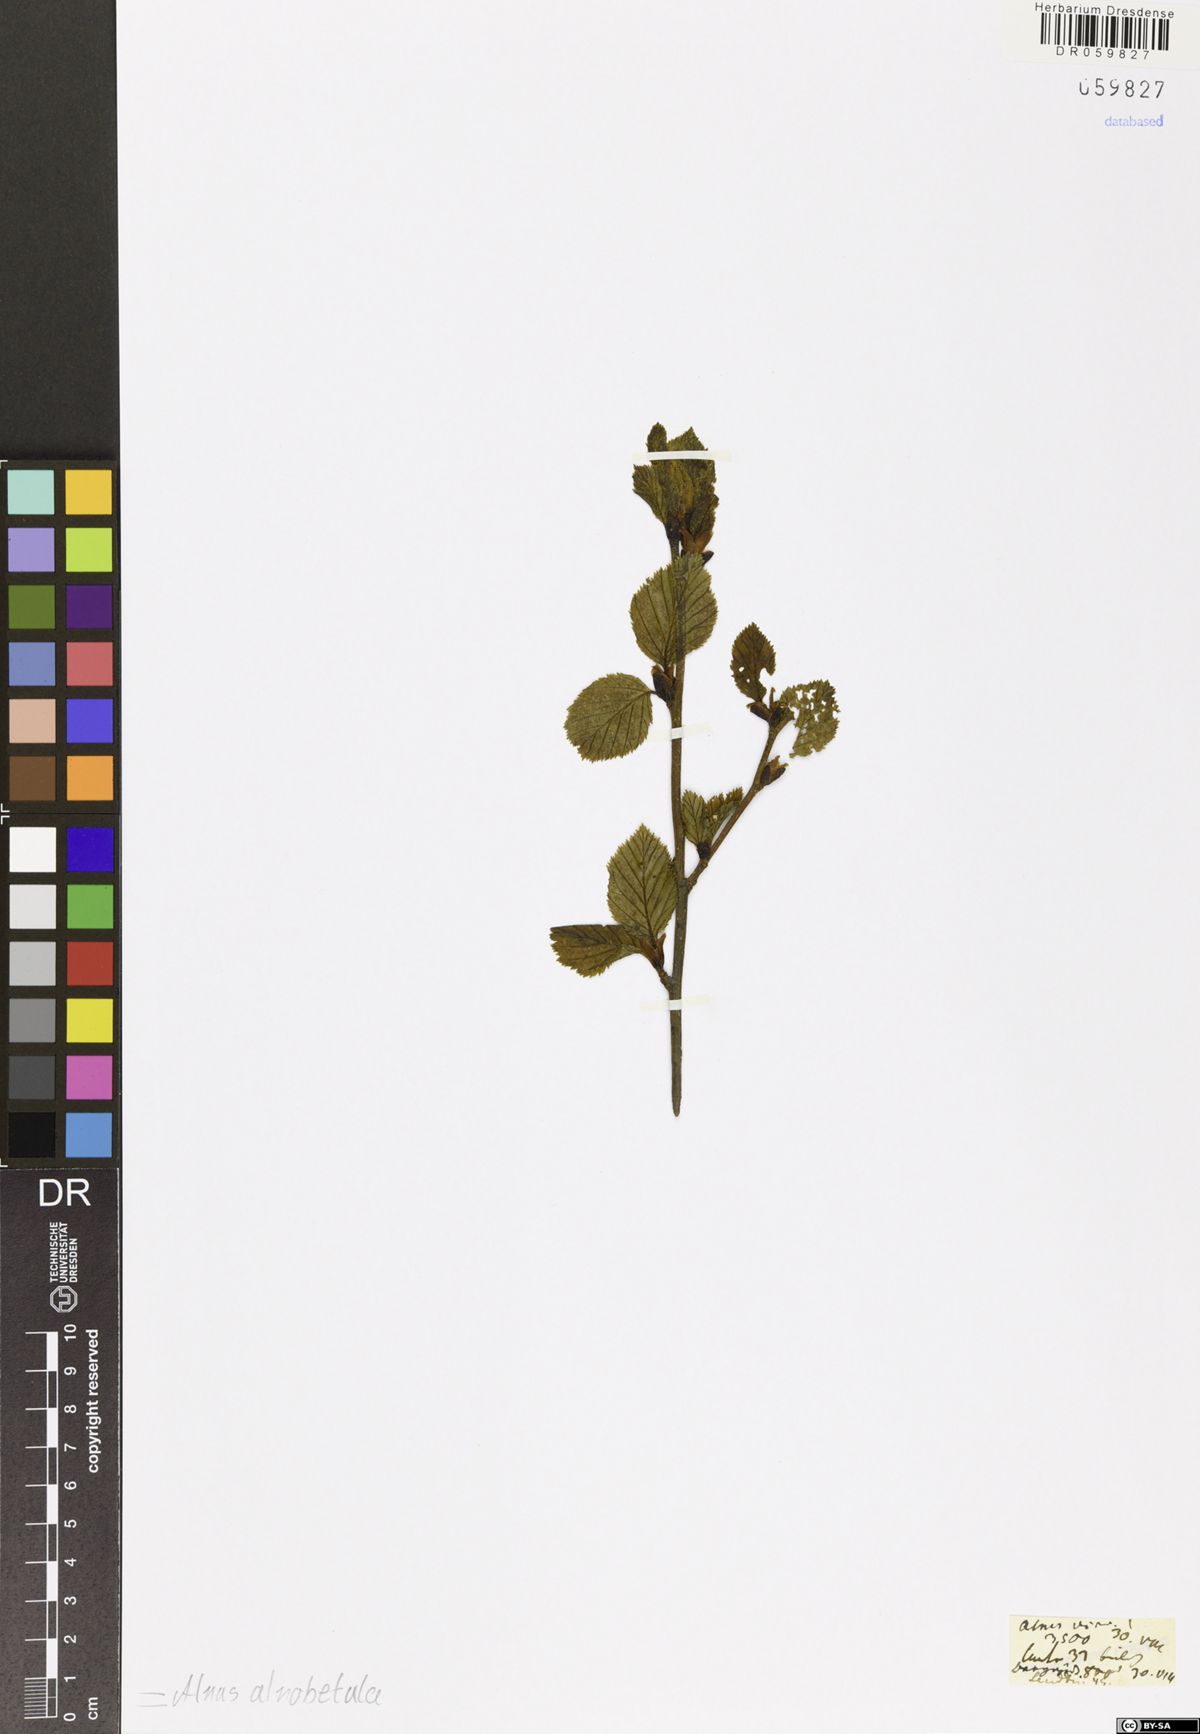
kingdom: Plantae
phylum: Tracheophyta
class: Magnoliopsida
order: Fagales
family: Betulaceae
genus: Alnus
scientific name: Alnus alnobetula
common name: Green alder
